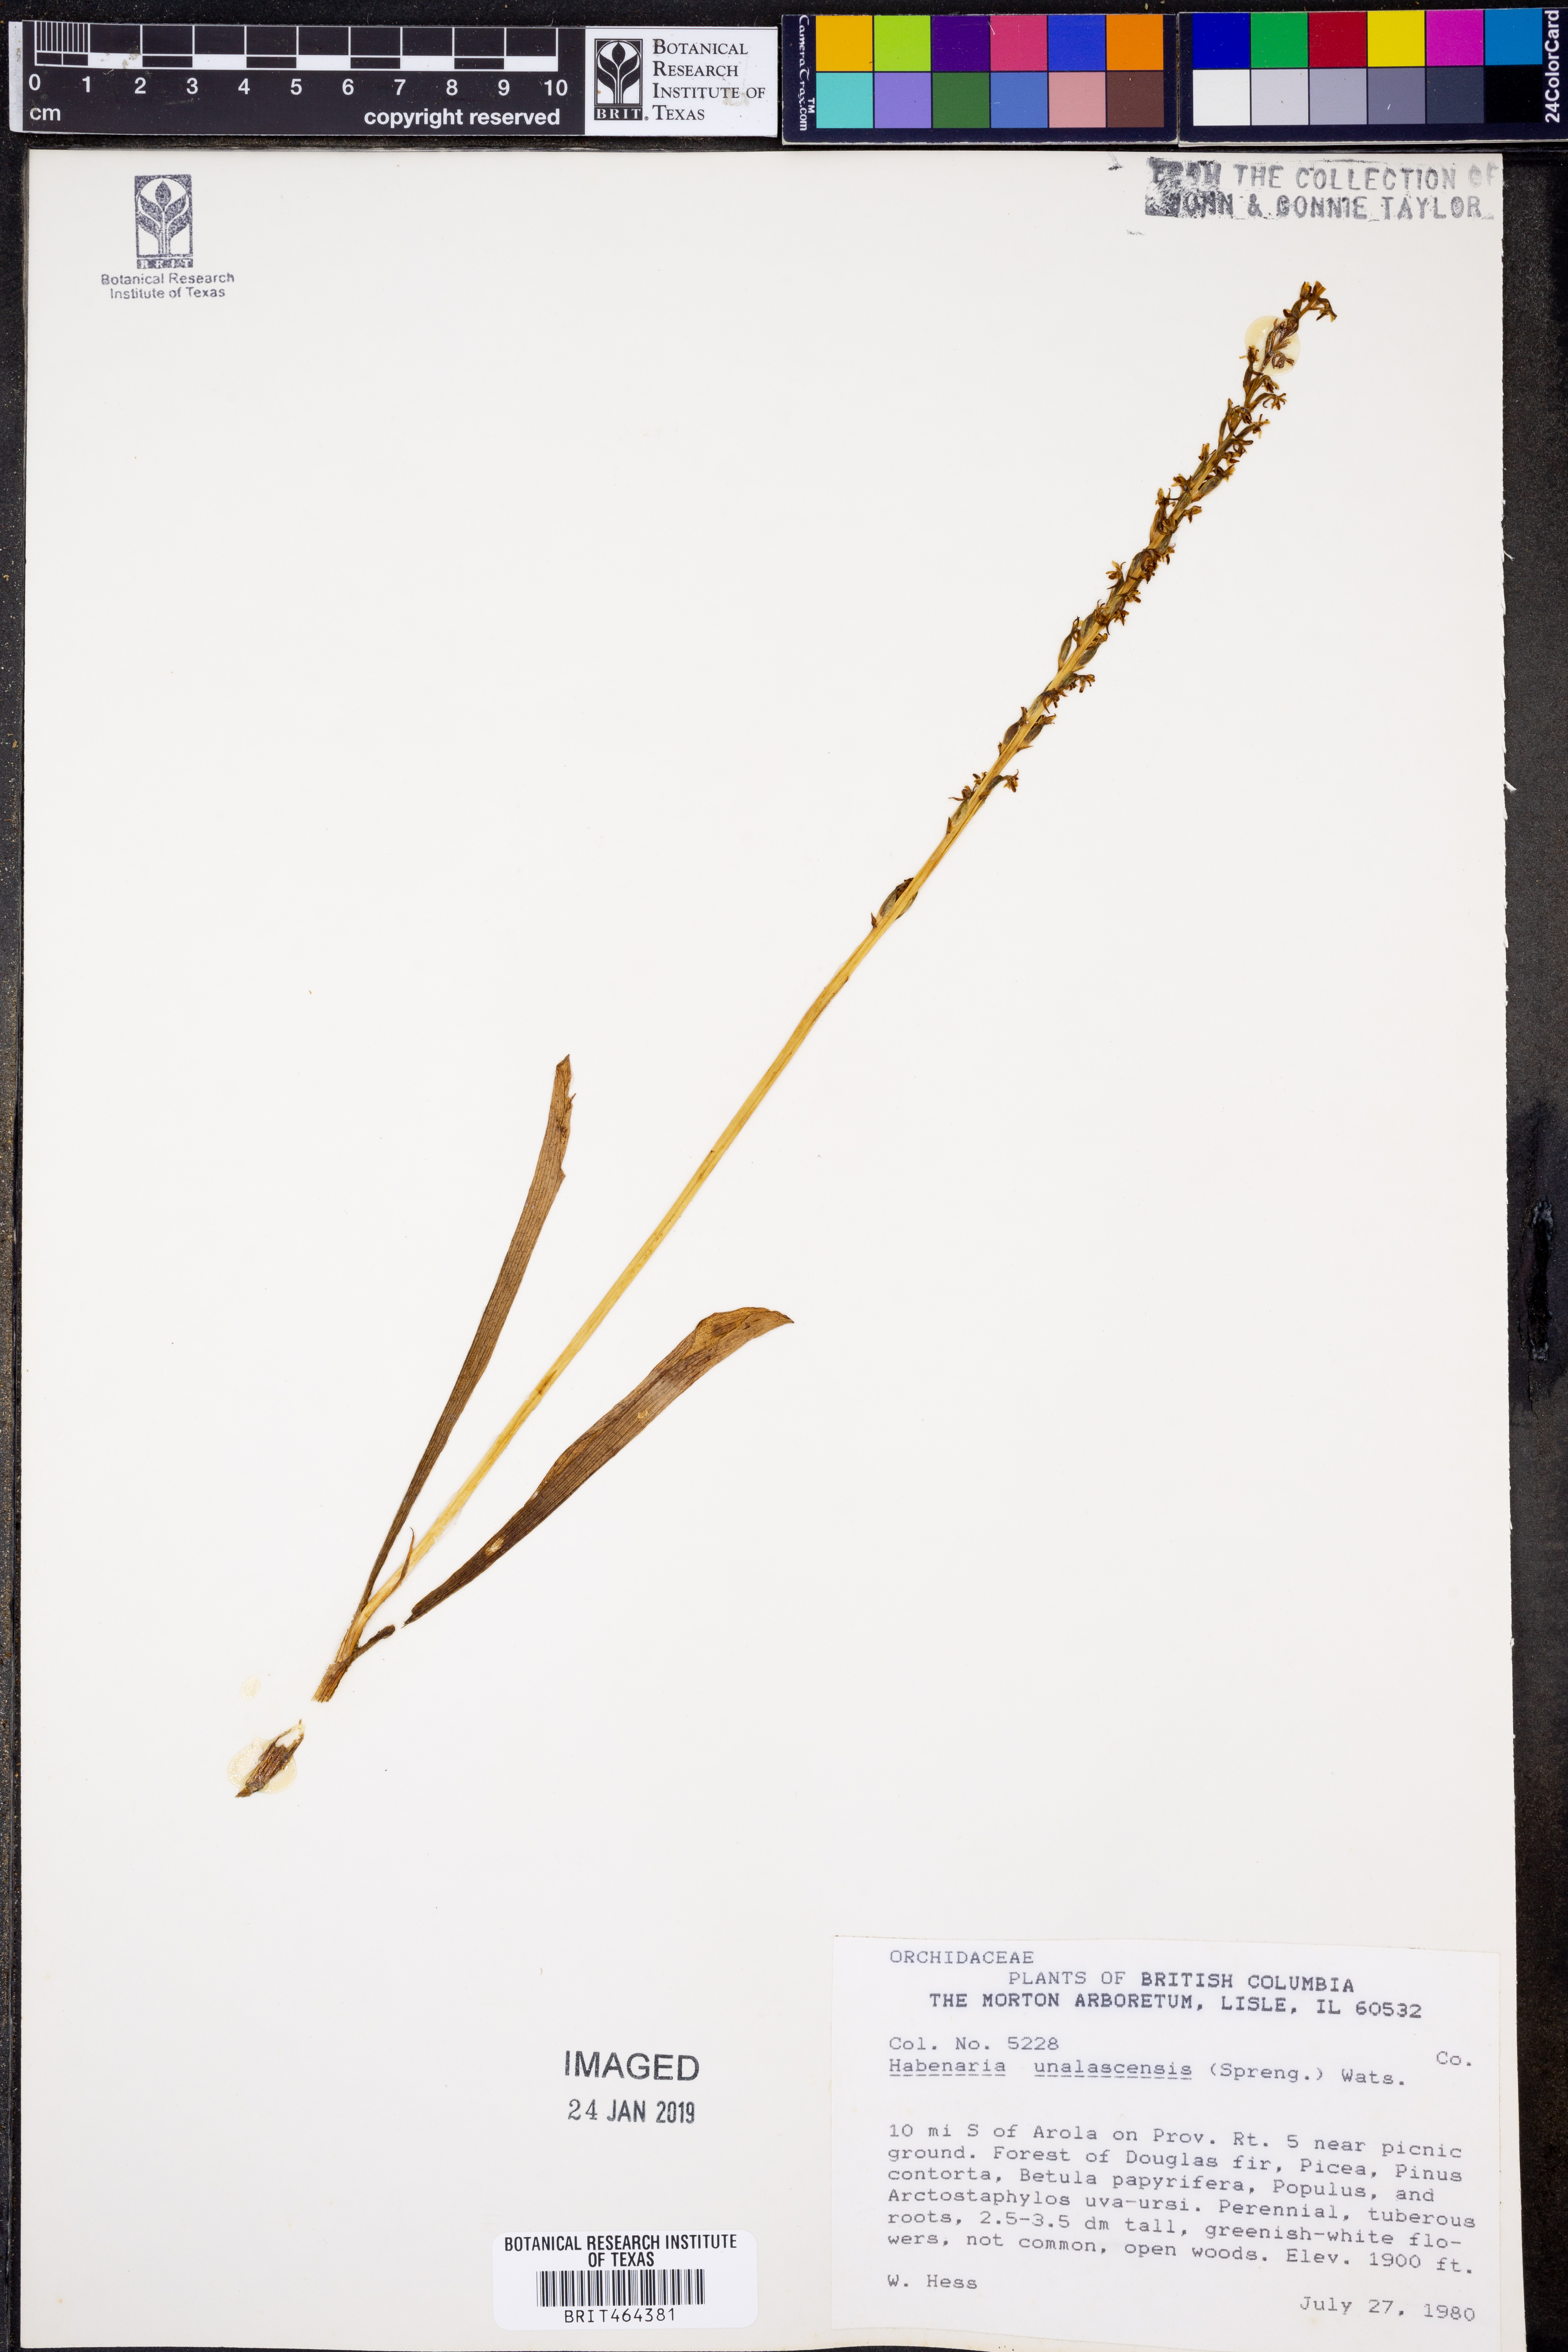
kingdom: Plantae
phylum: Tracheophyta
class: Liliopsida
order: Asparagales
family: Orchidaceae
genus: Platanthera
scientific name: Platanthera unalascensis
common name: Alaska bog orchid
